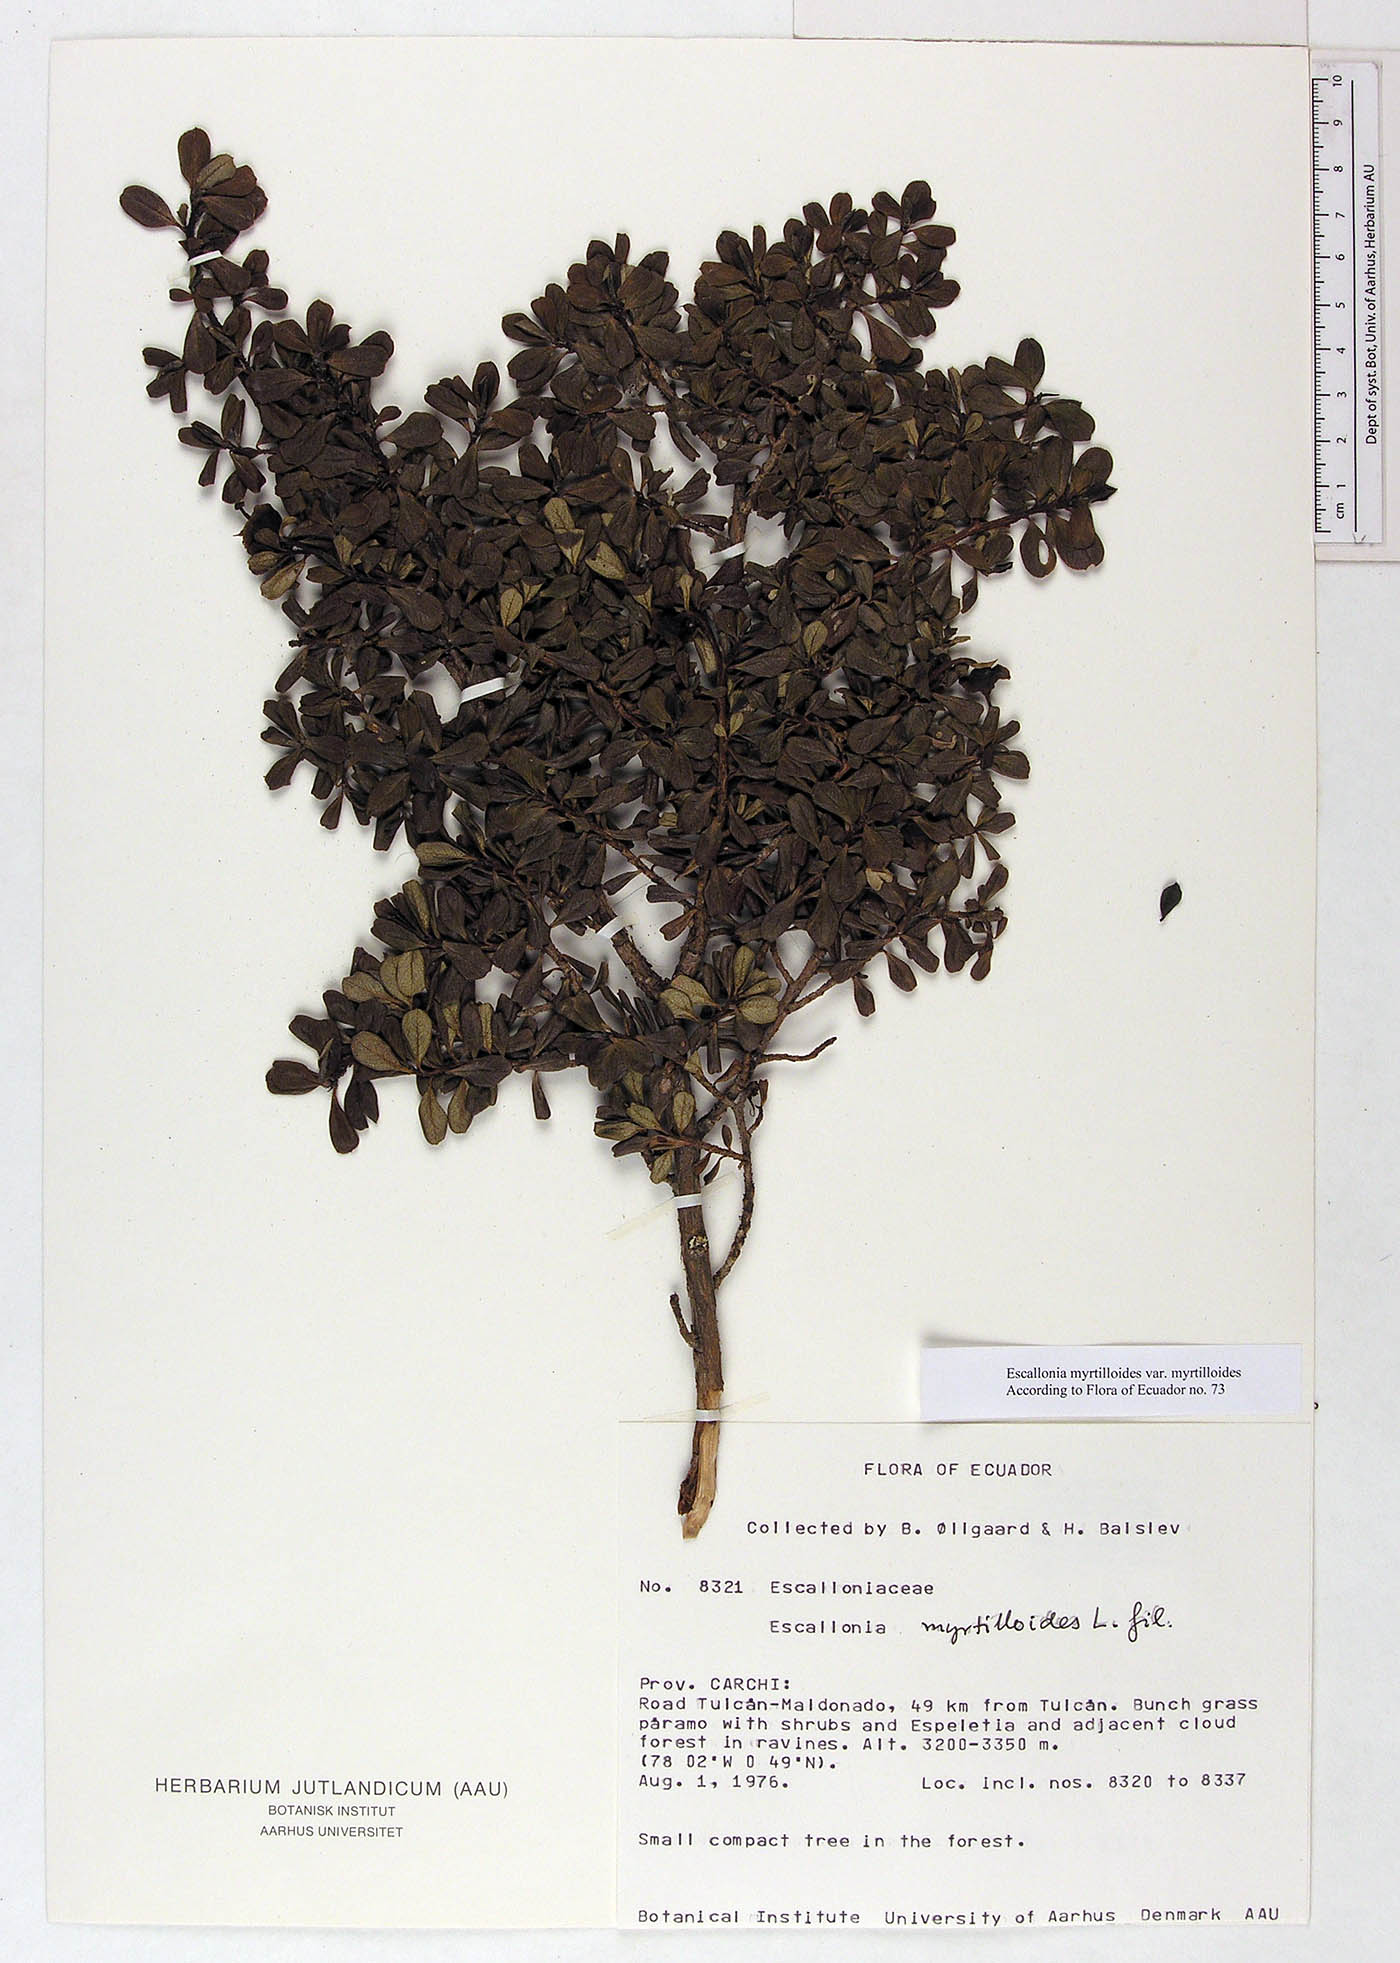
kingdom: Plantae
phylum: Tracheophyta
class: Magnoliopsida
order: Escalloniales
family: Escalloniaceae
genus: Escallonia
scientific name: Escallonia myrtilloides
